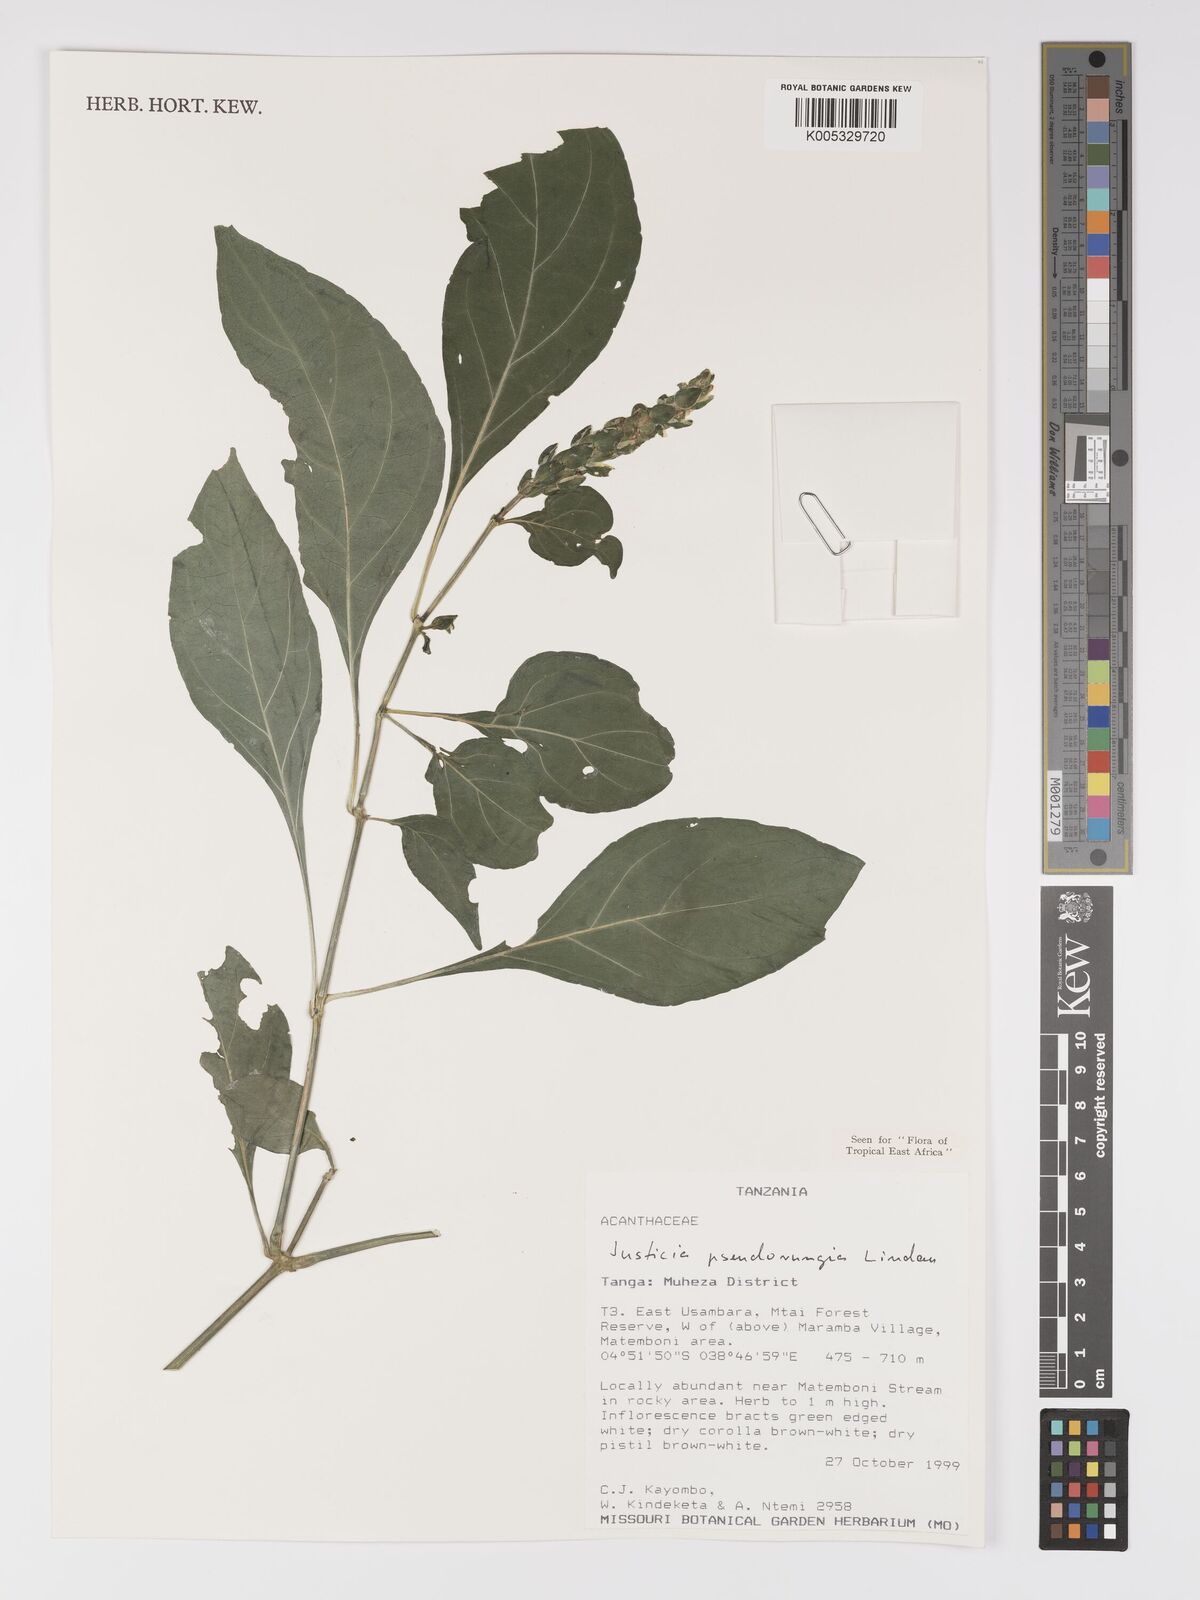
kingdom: Plantae
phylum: Tracheophyta
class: Magnoliopsida
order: Lamiales
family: Acanthaceae
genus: Justicia
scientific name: Justicia pseudorungia
